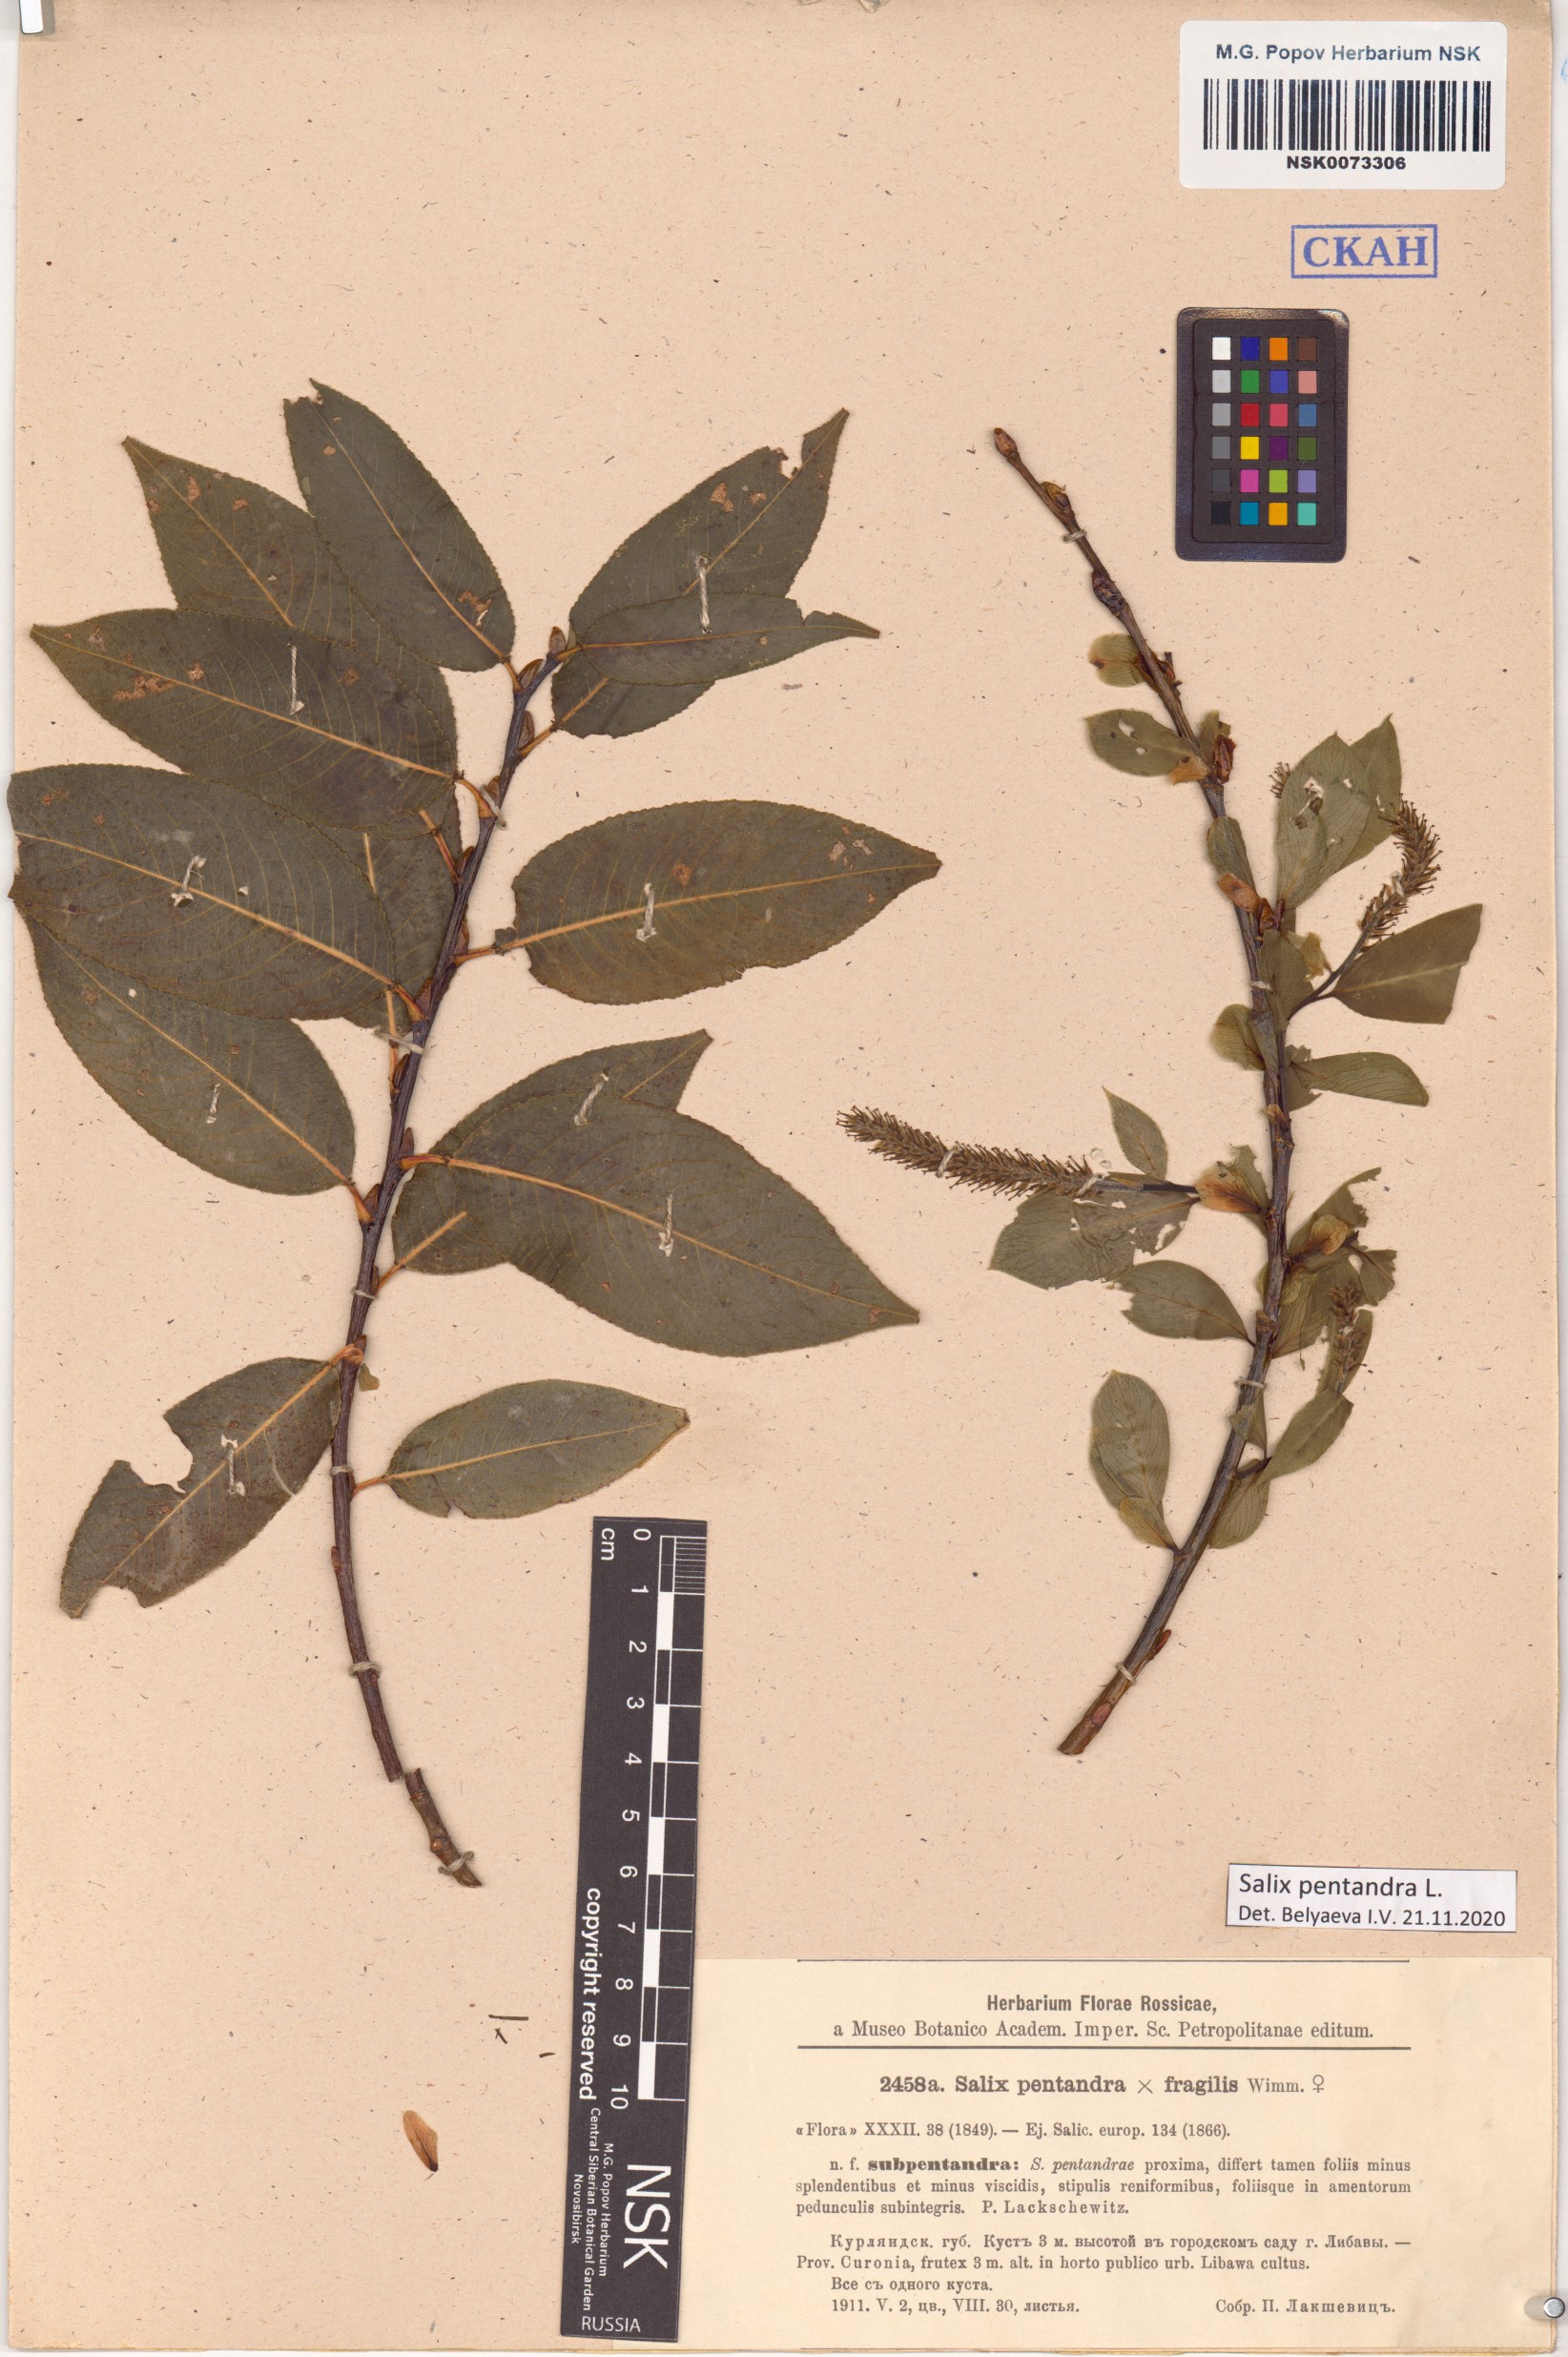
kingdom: Plantae
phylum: Tracheophyta
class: Magnoliopsida
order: Malpighiales
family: Salicaceae
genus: Salix
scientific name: Salix pentandra
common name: Bay willow
